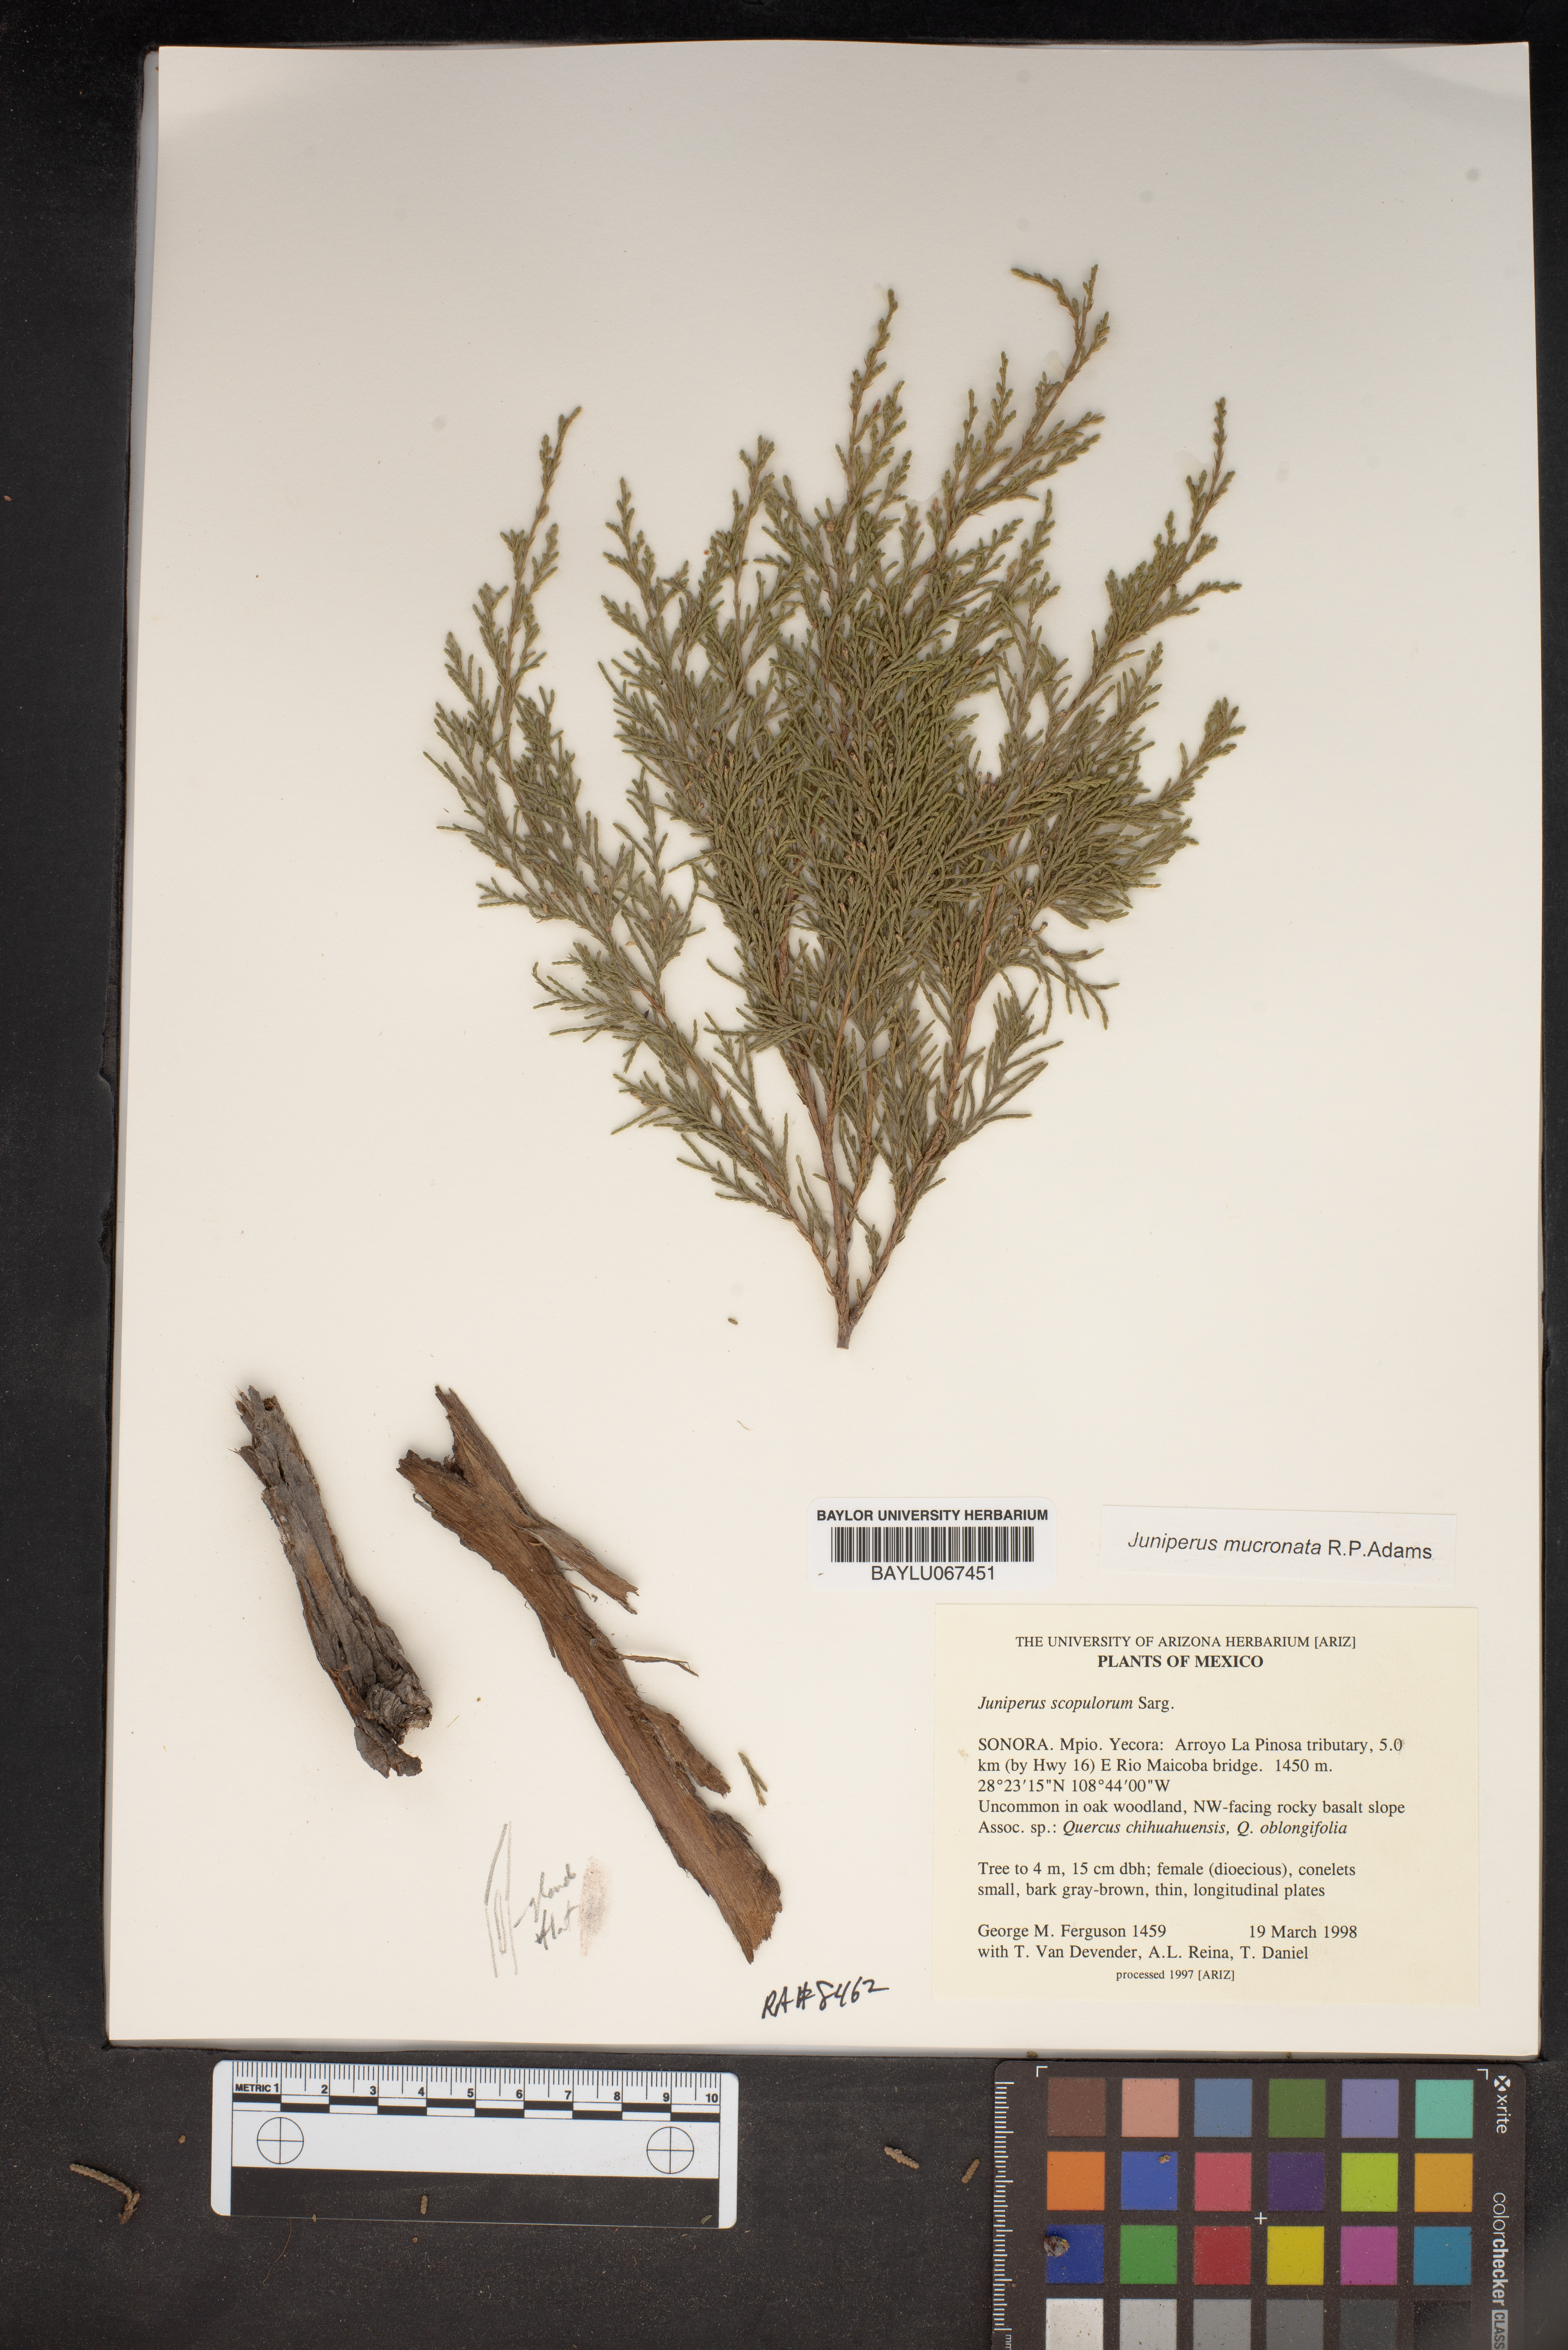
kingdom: Plantae
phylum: Tracheophyta
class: Pinopsida
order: Pinales
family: Cupressaceae
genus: Juniperus
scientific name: Juniperus blancoi
